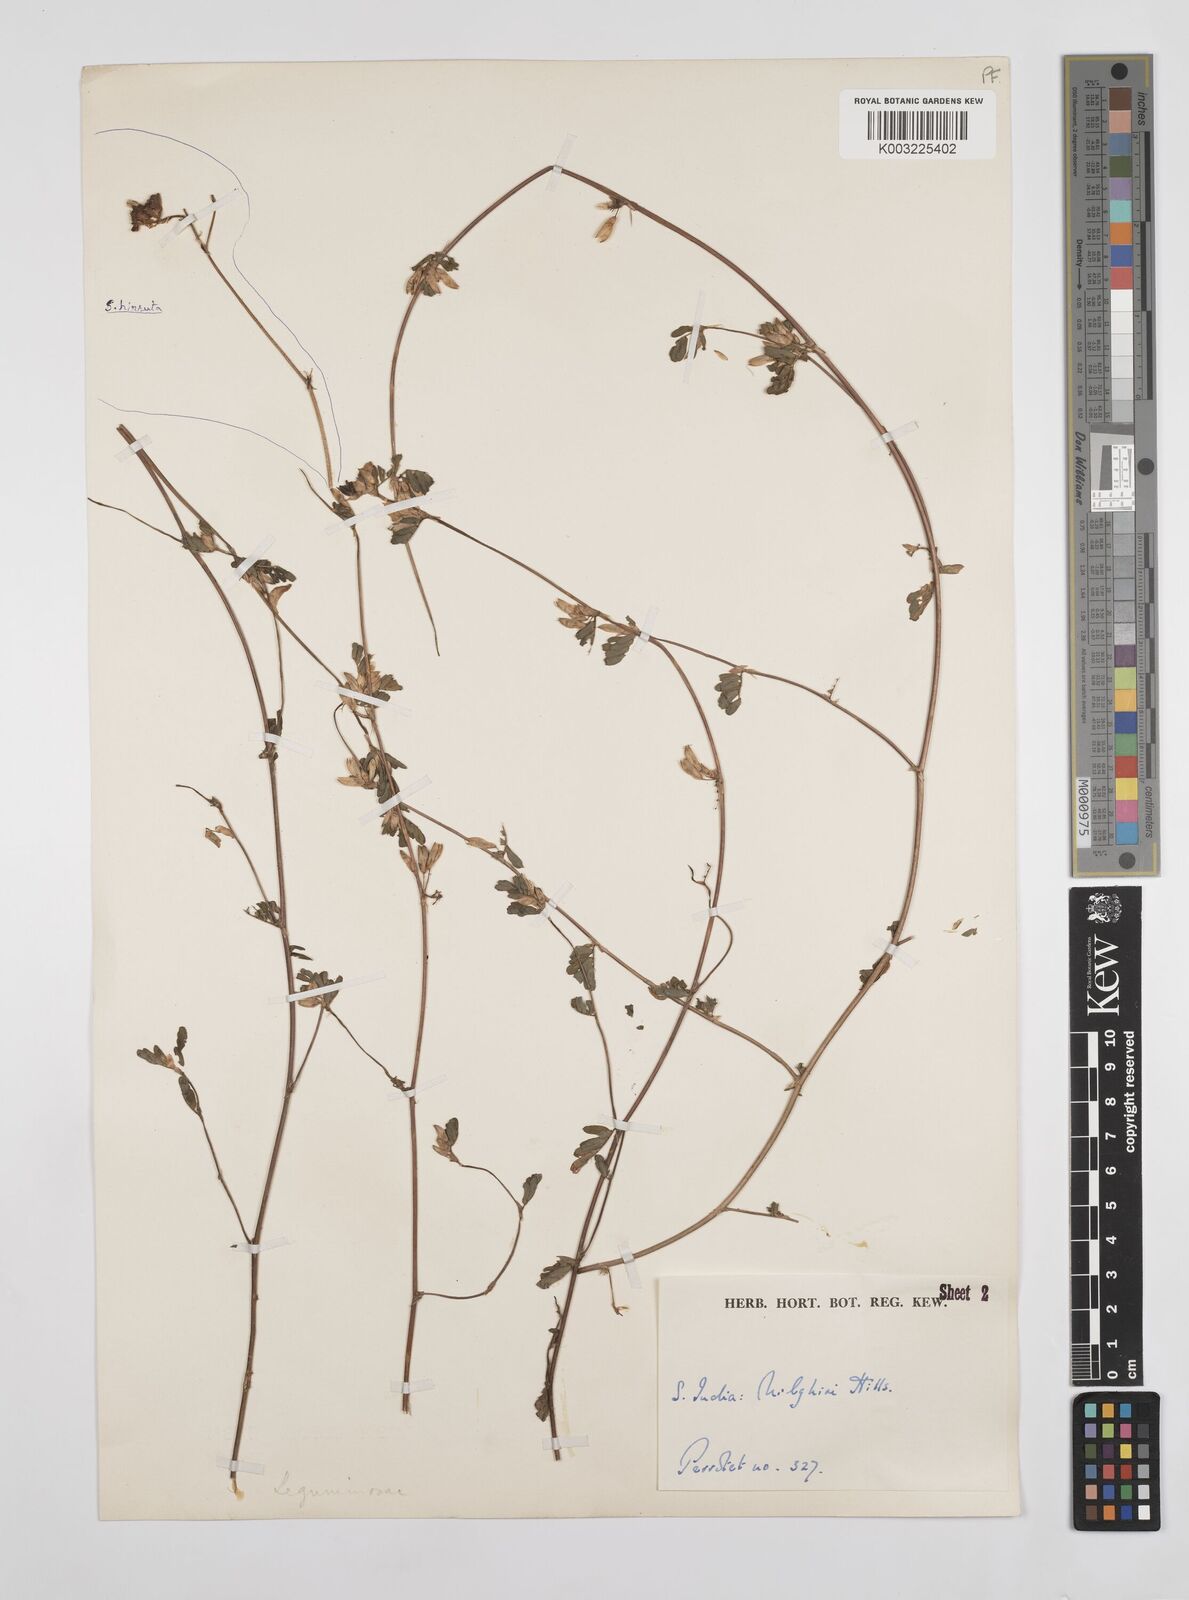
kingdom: Plantae
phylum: Tracheophyta
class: Magnoliopsida
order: Fabales
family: Fabaceae
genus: Smithia
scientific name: Smithia purpurea
